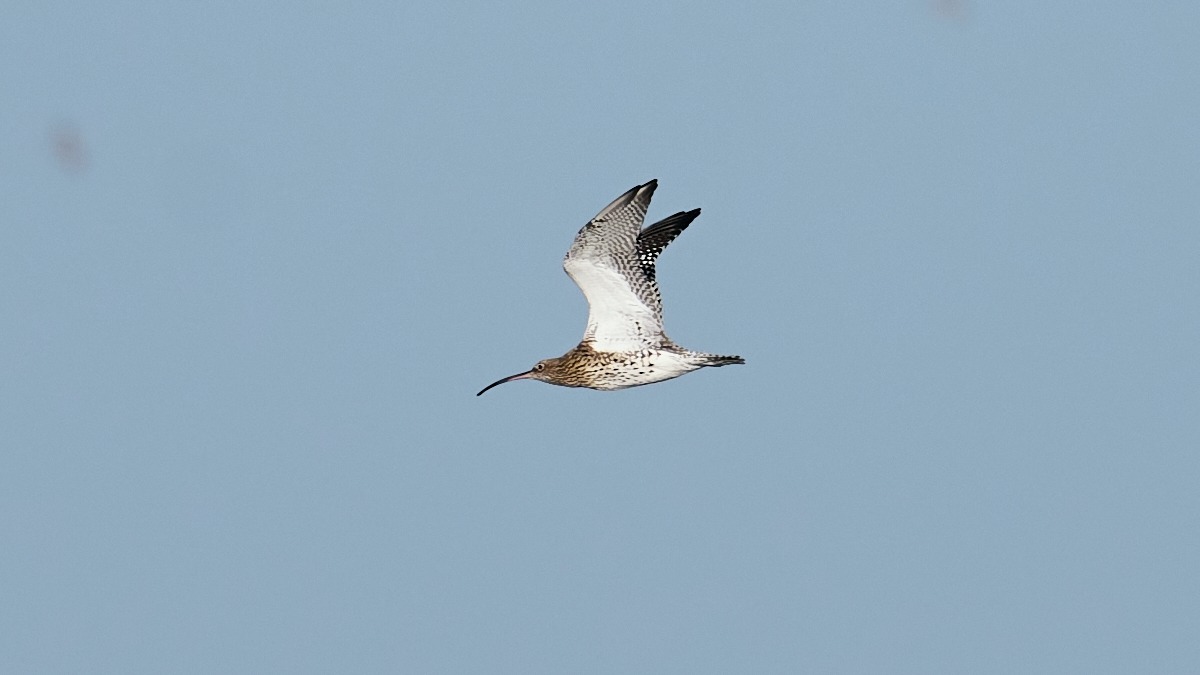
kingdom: Animalia
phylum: Chordata
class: Aves
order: Charadriiformes
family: Scolopacidae
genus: Numenius
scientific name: Numenius arquata
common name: Storspove
